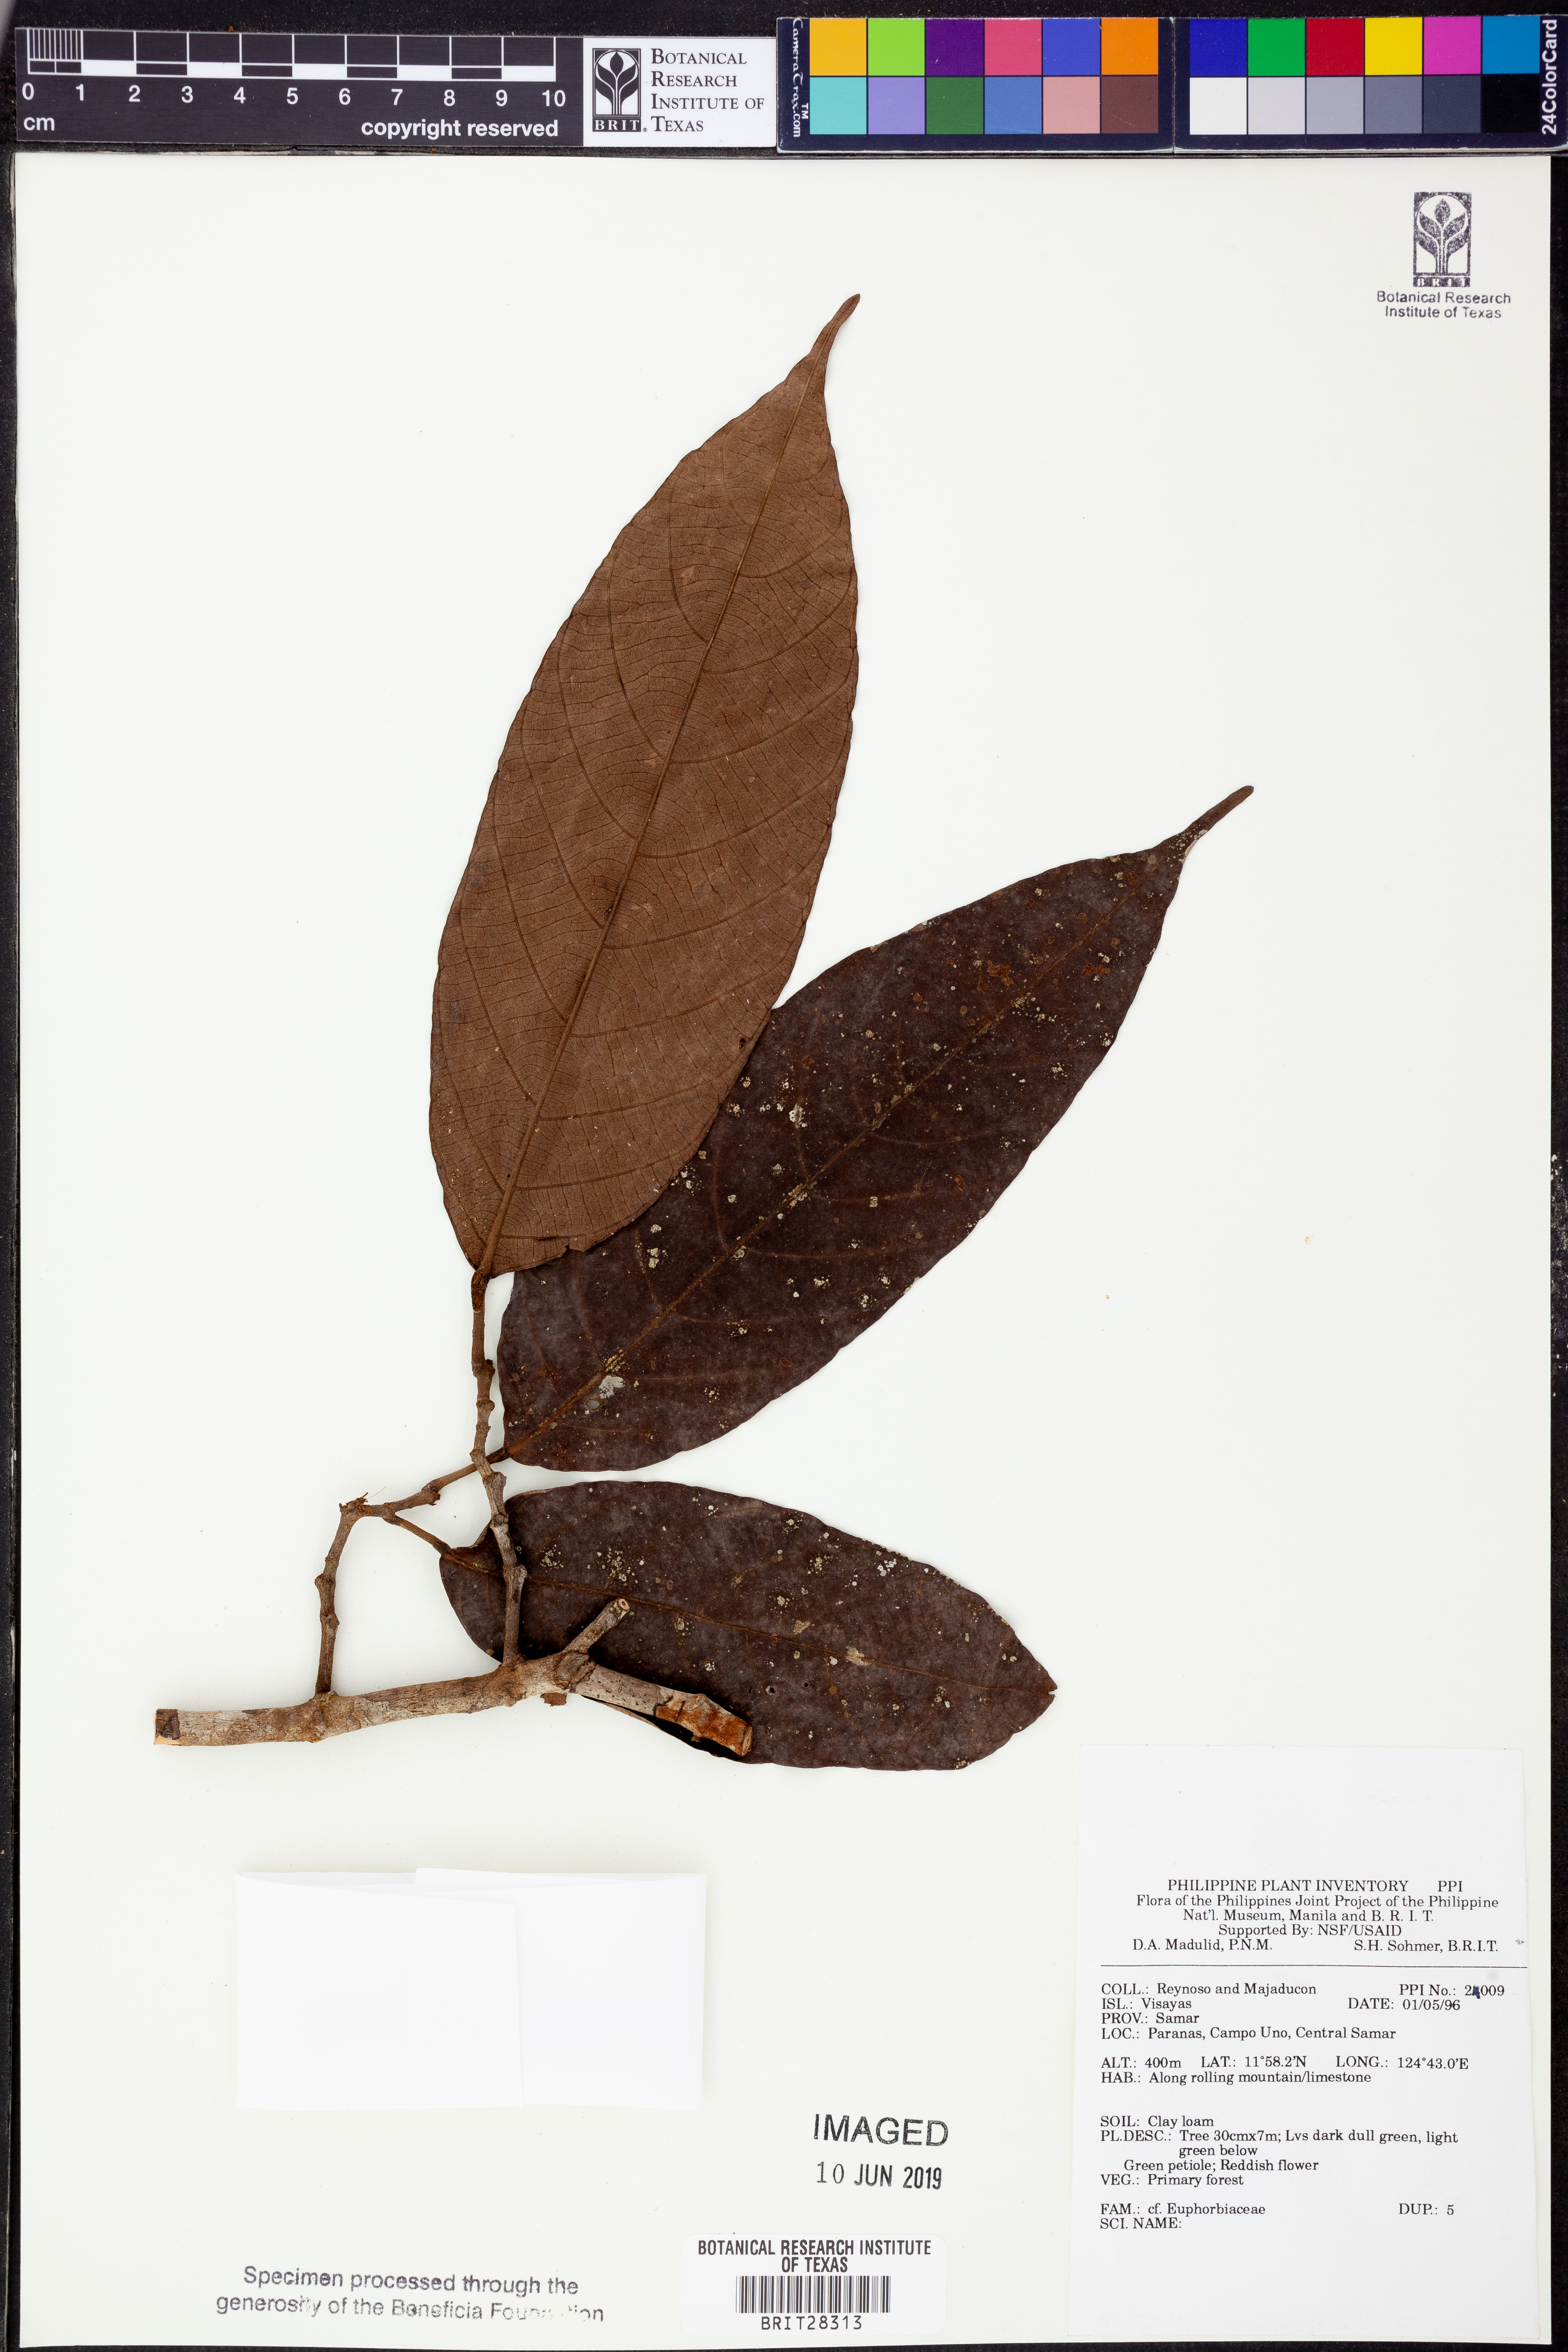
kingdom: Plantae
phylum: Tracheophyta
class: Magnoliopsida
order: Malpighiales
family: Euphorbiaceae
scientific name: Euphorbiaceae
